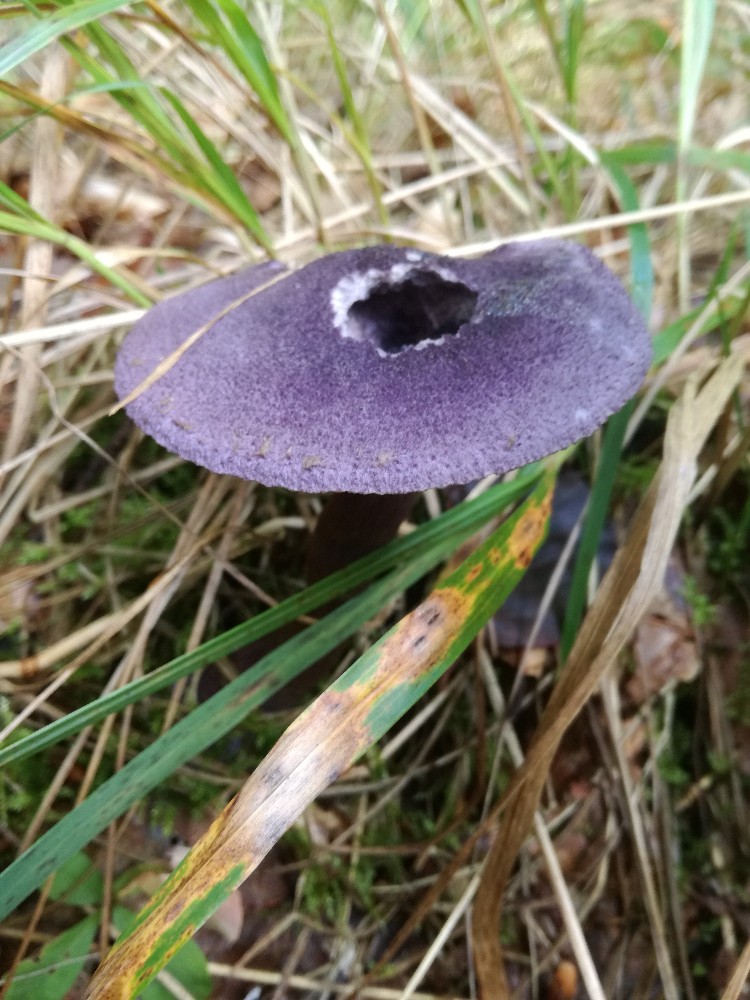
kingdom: Fungi
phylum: Basidiomycota
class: Agaricomycetes
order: Agaricales
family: Cortinariaceae
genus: Cortinarius
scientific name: Cortinarius violaceus
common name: mørkviolet slørhat
